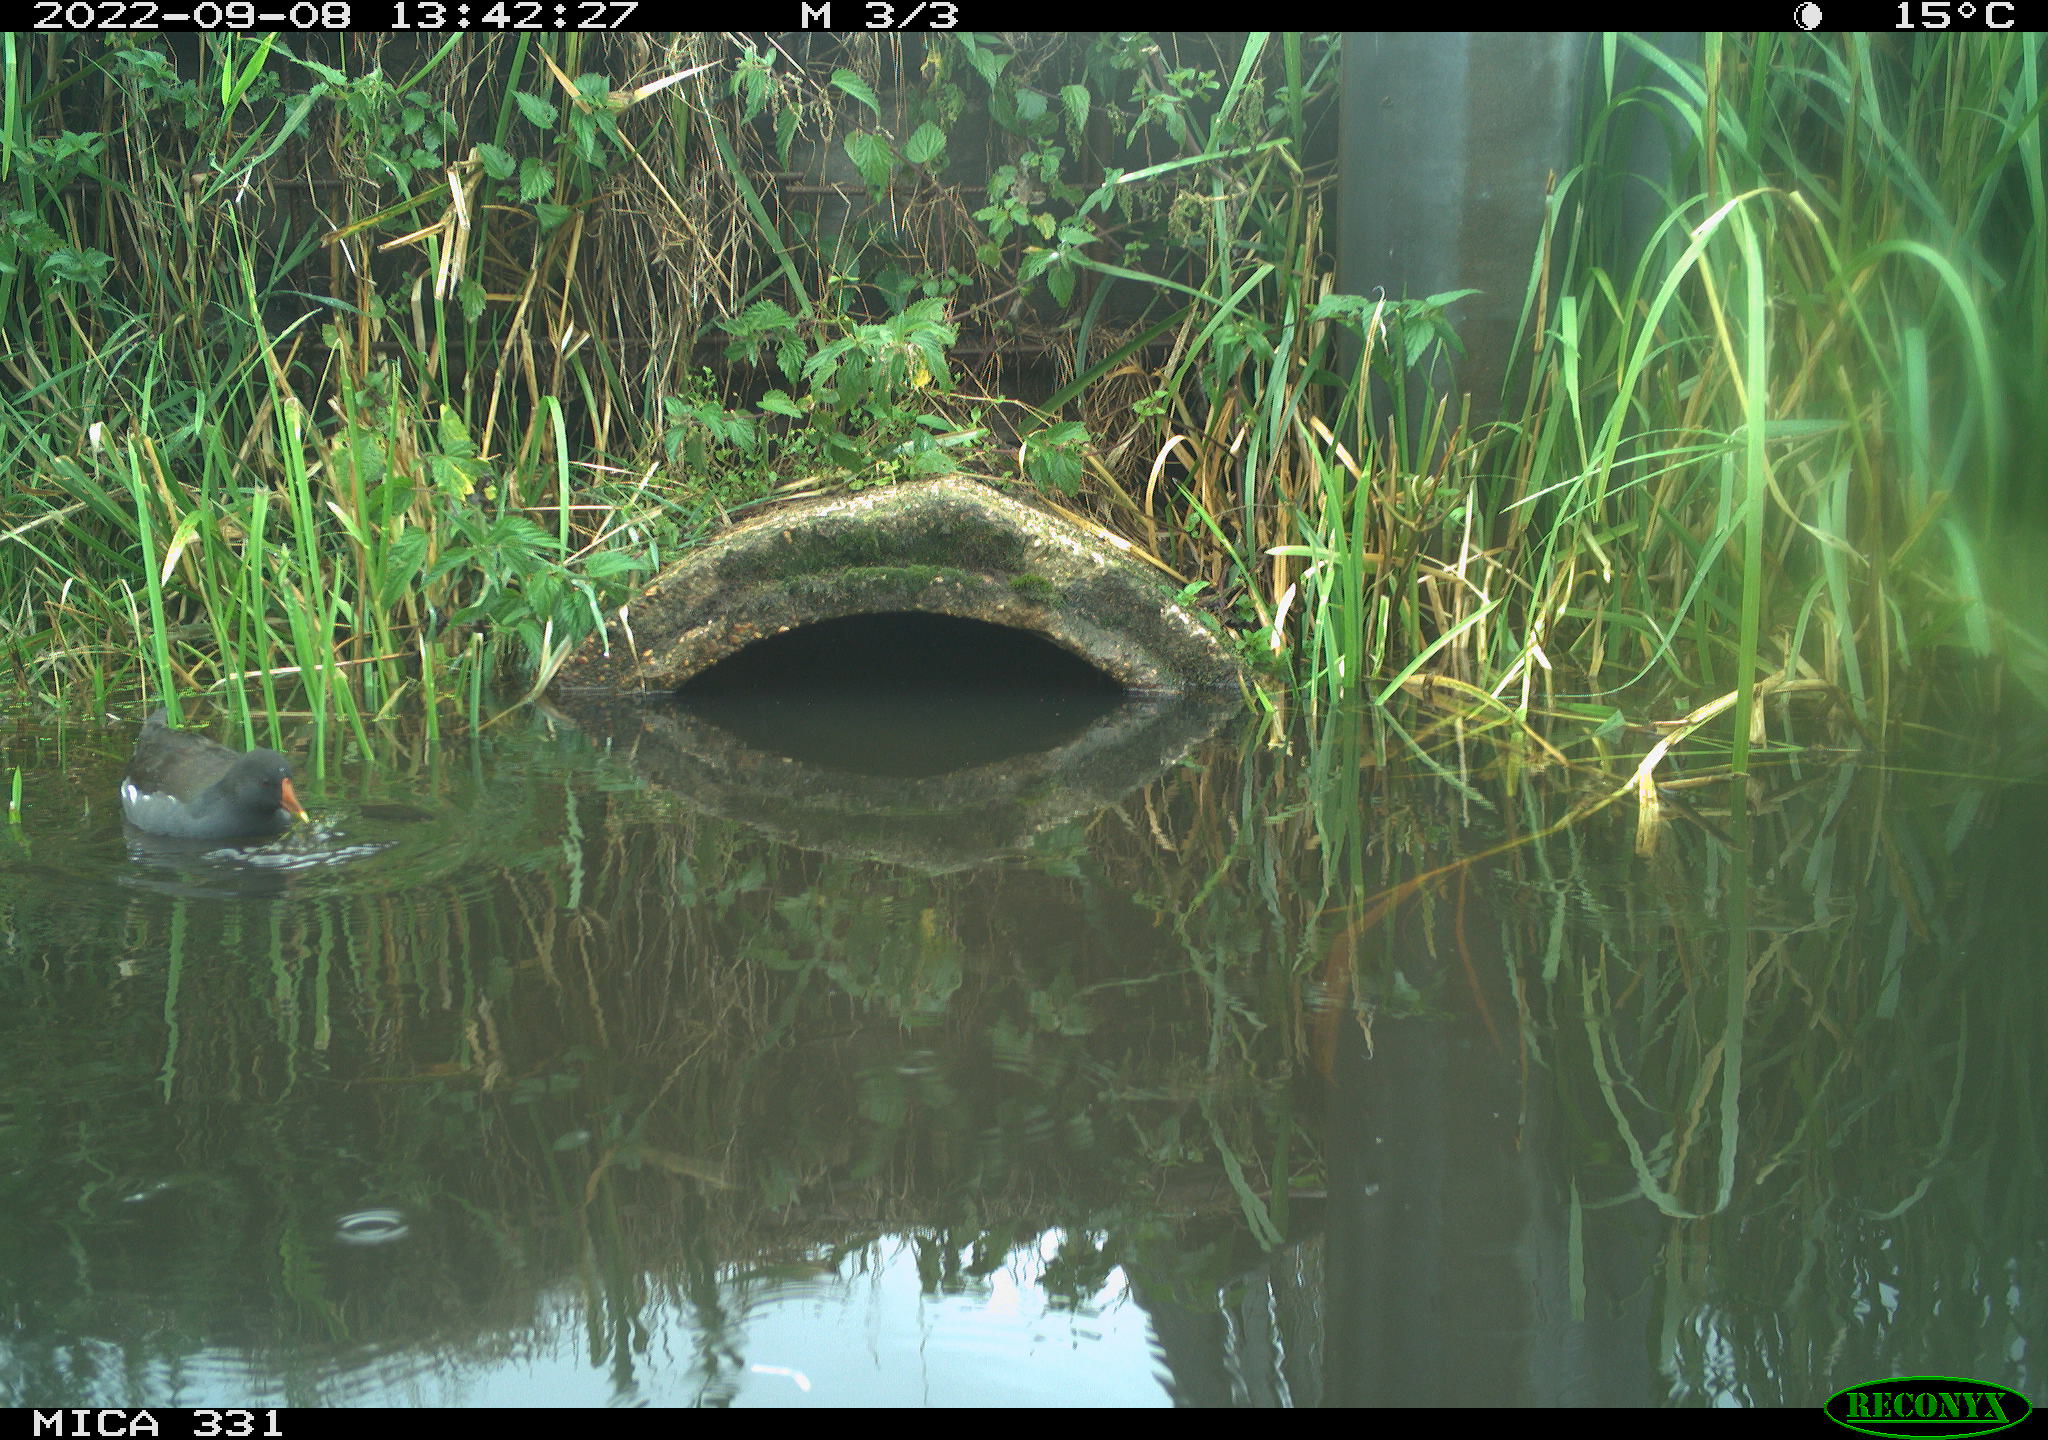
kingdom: Animalia
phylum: Chordata
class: Aves
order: Gruiformes
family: Rallidae
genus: Gallinula
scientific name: Gallinula chloropus
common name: Common moorhen
